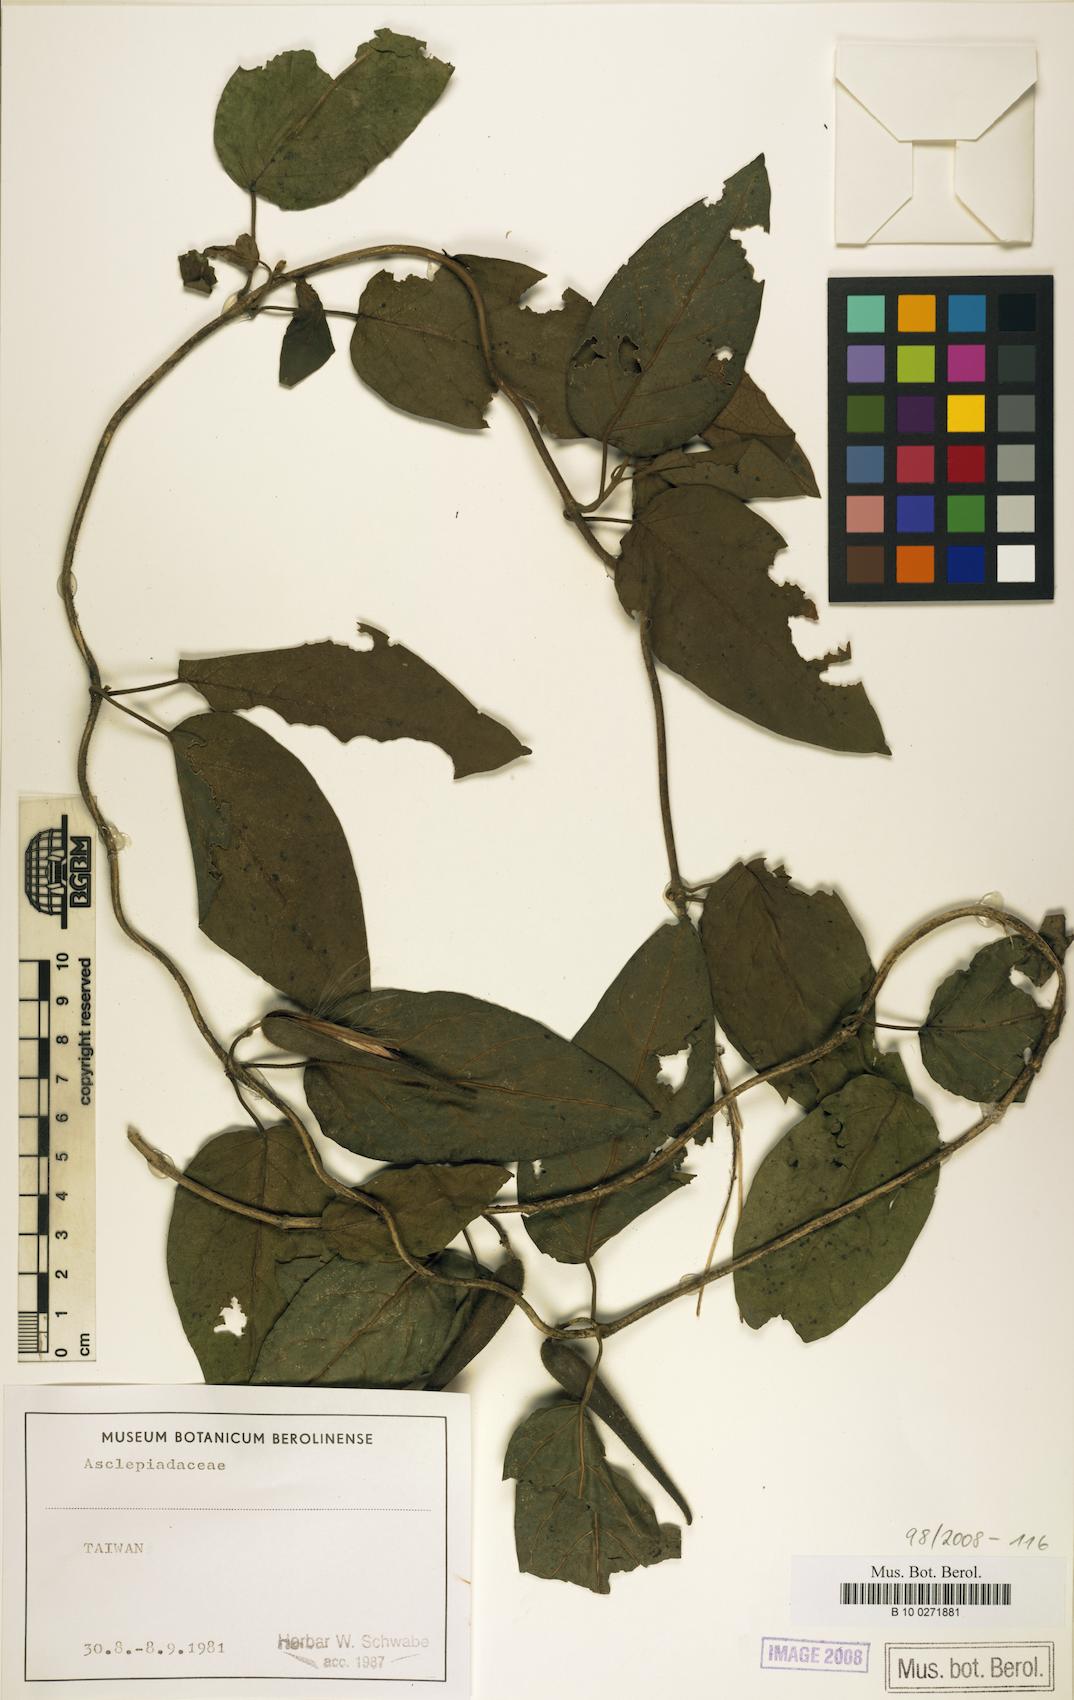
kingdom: Plantae
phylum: Tracheophyta
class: Magnoliopsida
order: Gentianales
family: Asclepiadaceae
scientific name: Asclepiadaceae
